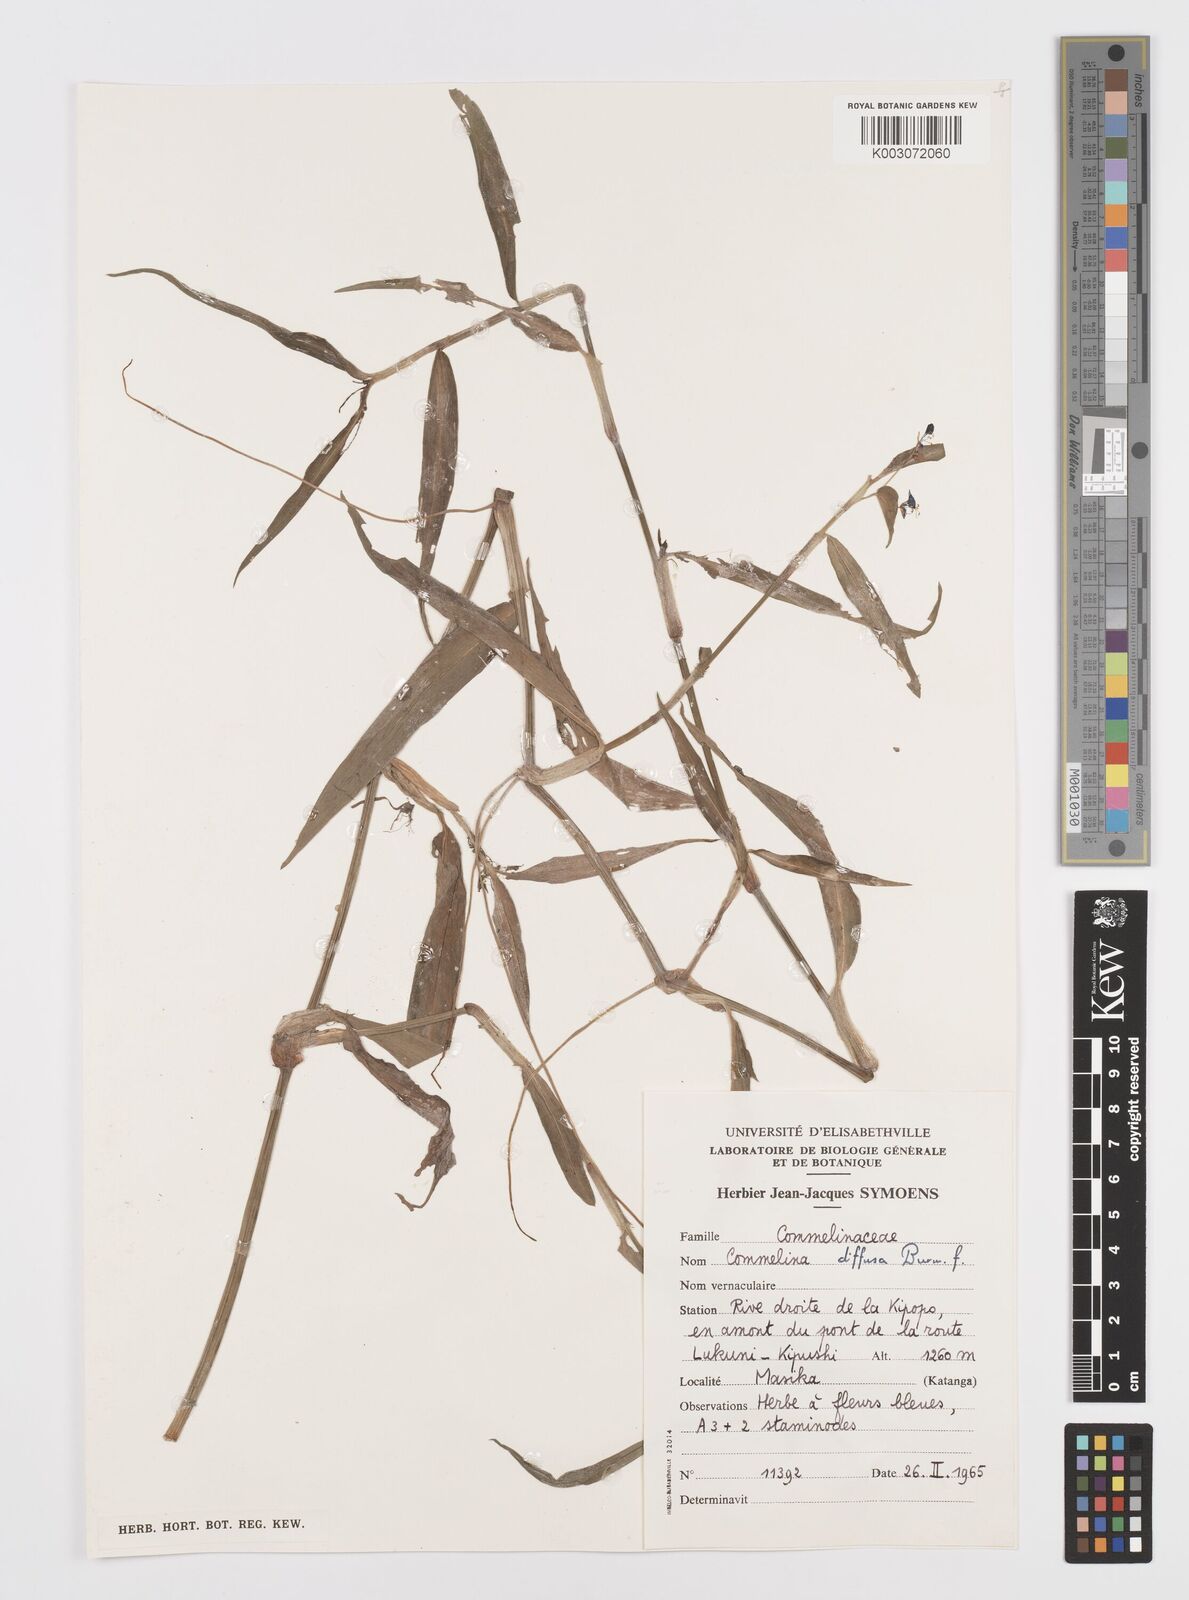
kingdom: Plantae
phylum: Tracheophyta
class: Liliopsida
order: Commelinales
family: Commelinaceae
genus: Commelina
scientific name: Commelina diffusa
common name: Climbing dayflower
